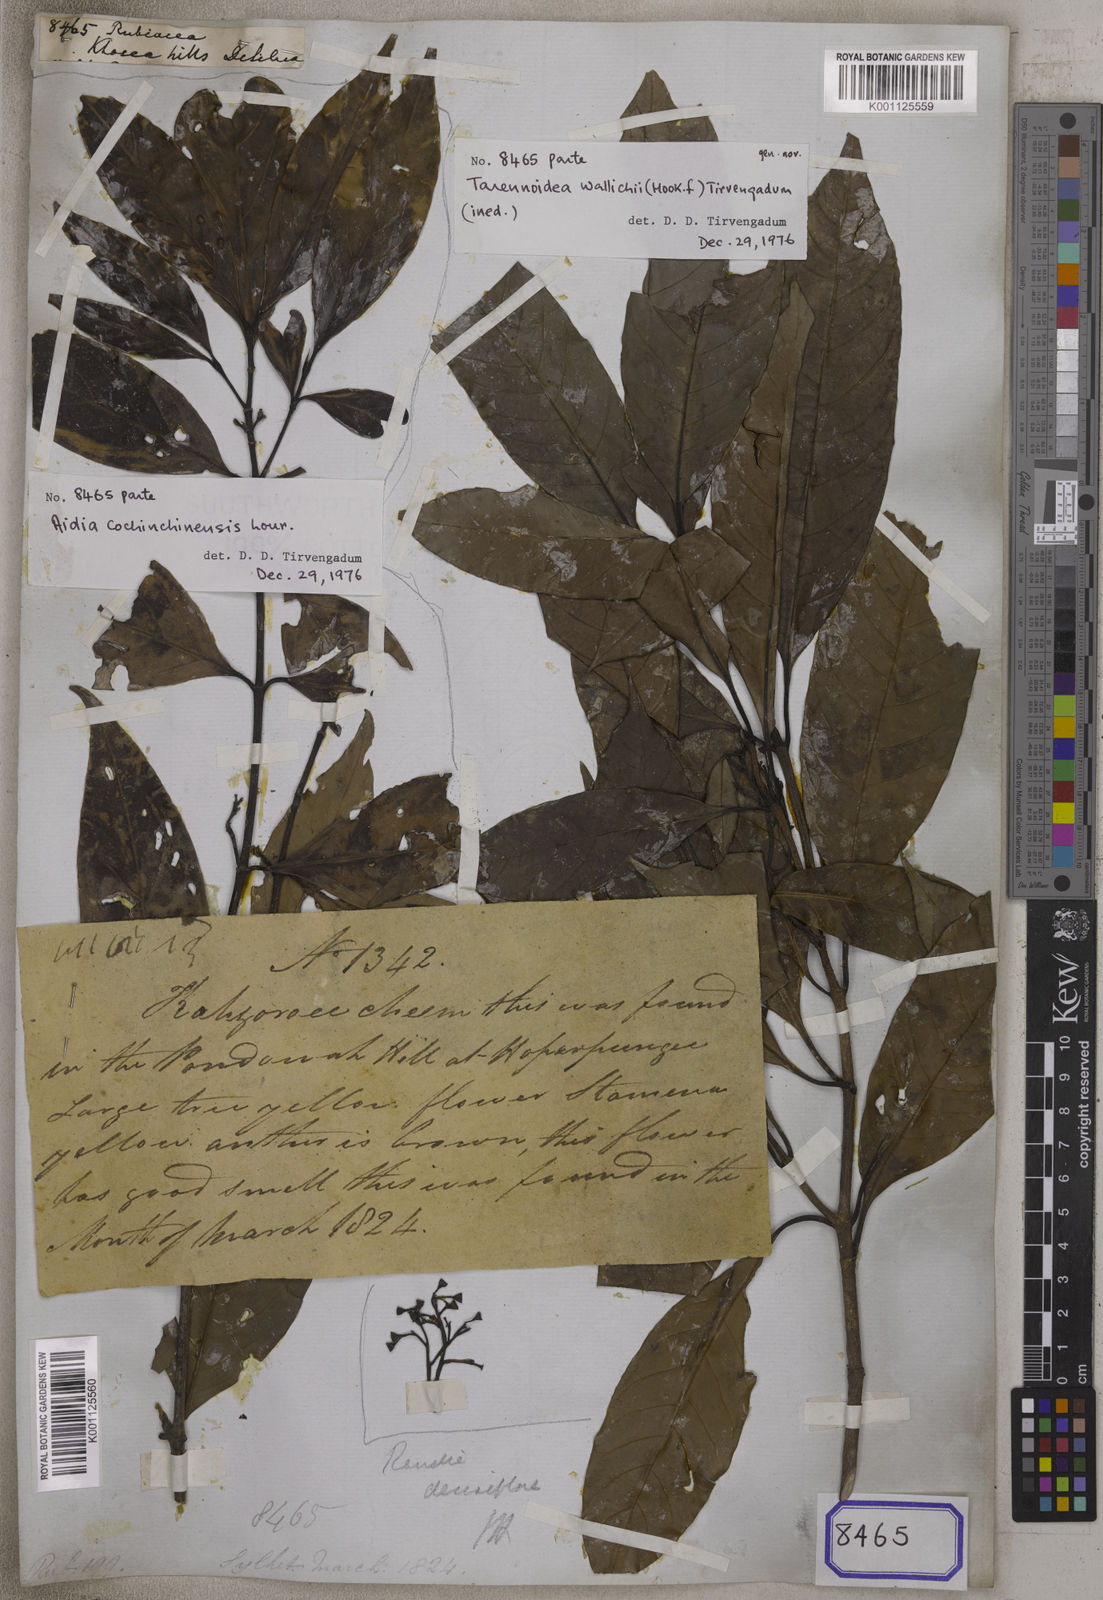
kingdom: Plantae
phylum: Tracheophyta
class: Magnoliopsida
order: Gentianales
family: Rubiaceae
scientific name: Rubiaceae
